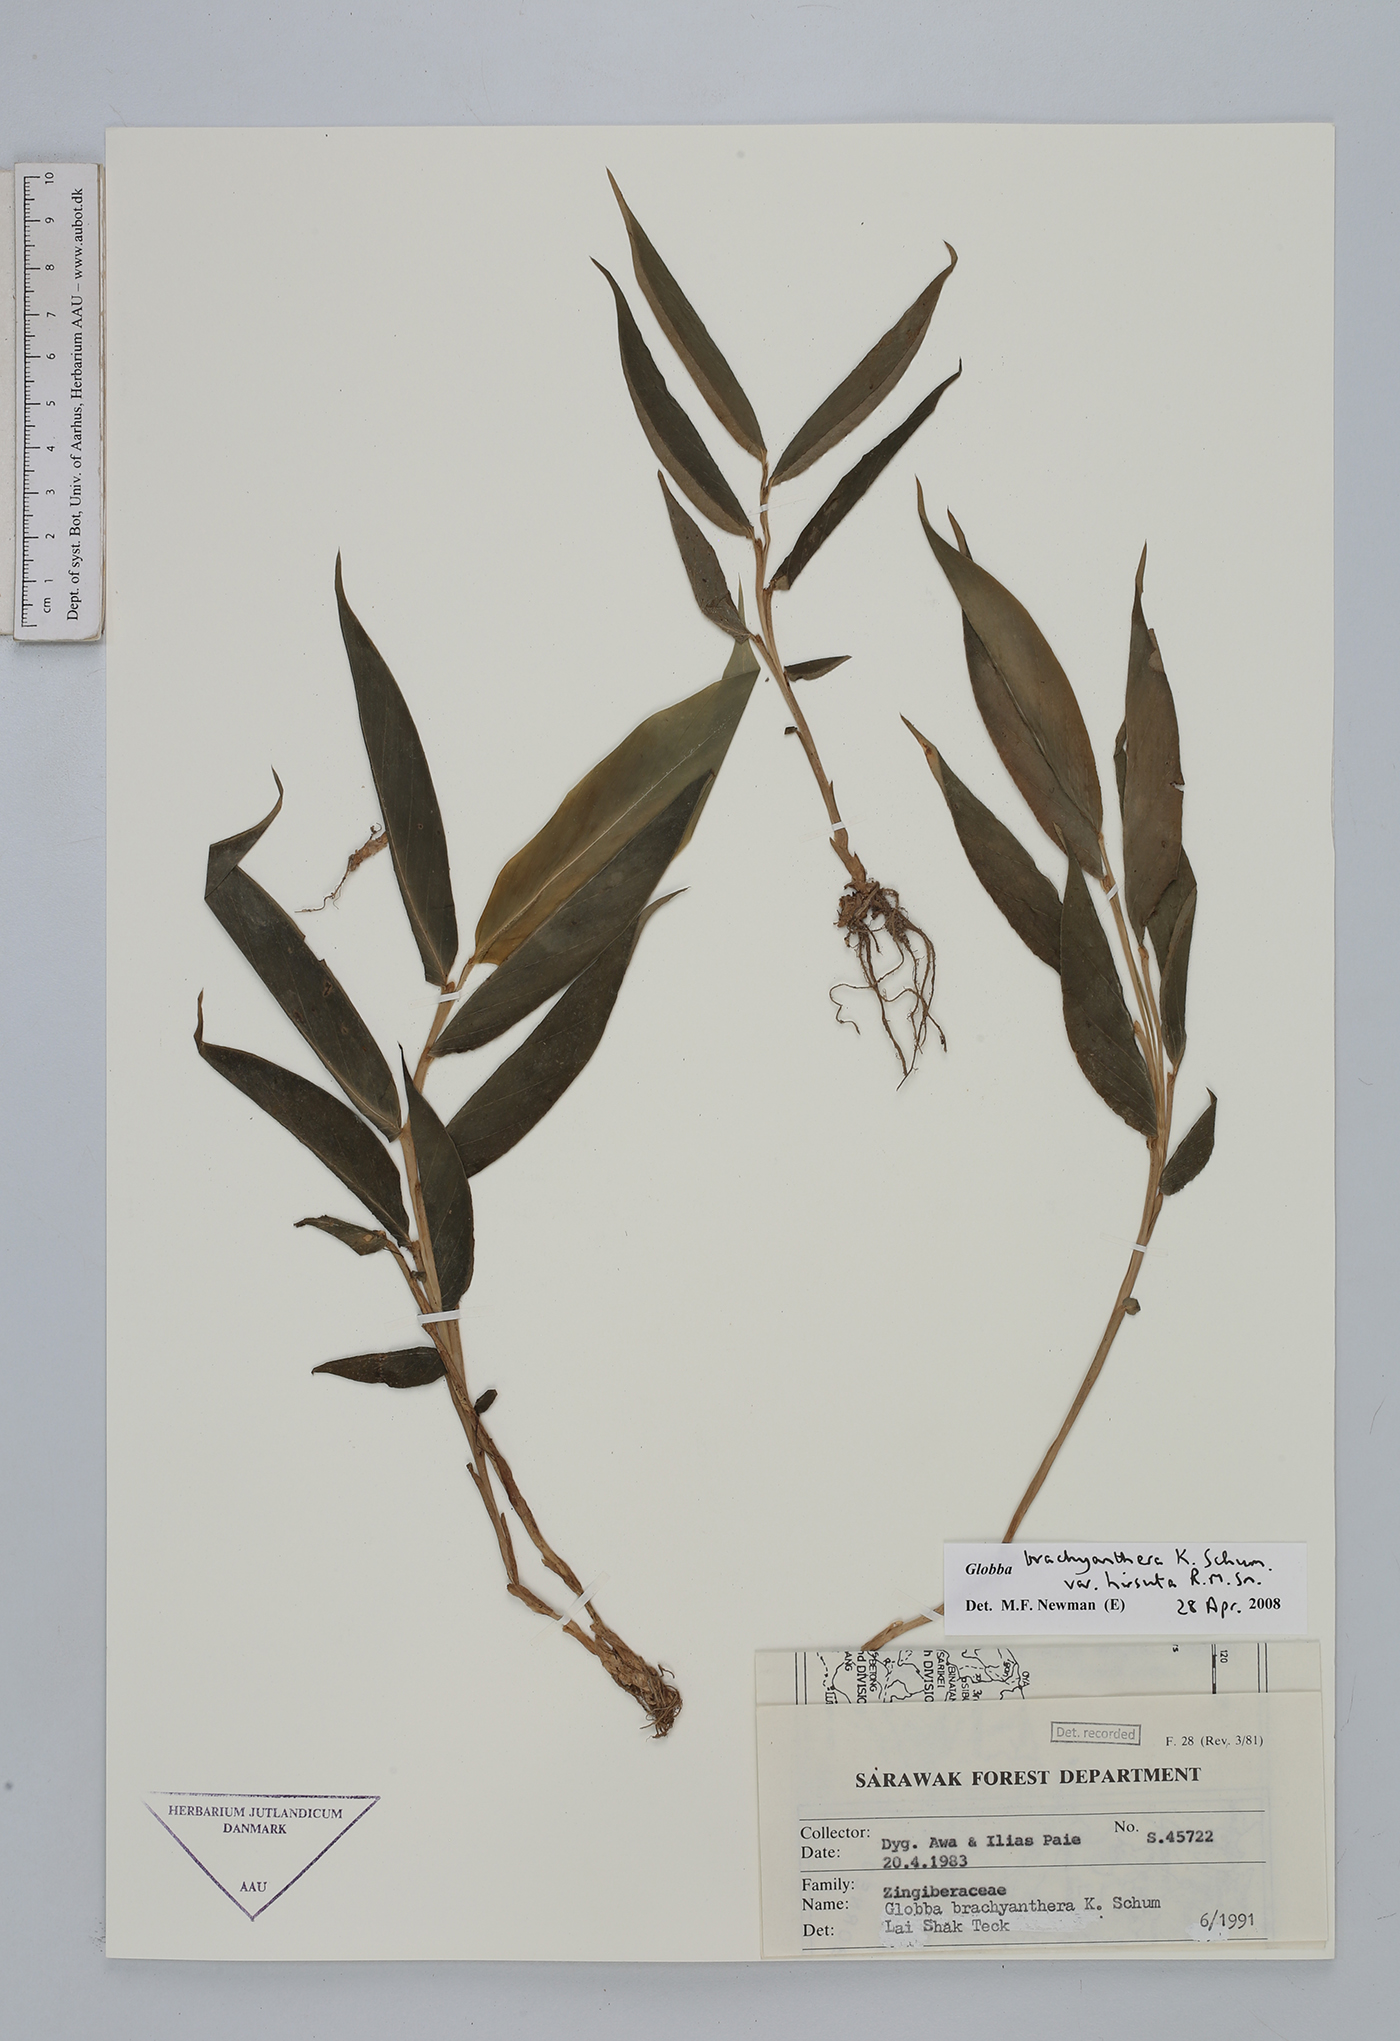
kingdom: Plantae
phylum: Tracheophyta
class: Liliopsida
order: Zingiberales
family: Zingiberaceae
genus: Globba
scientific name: Globba brachyanthera
